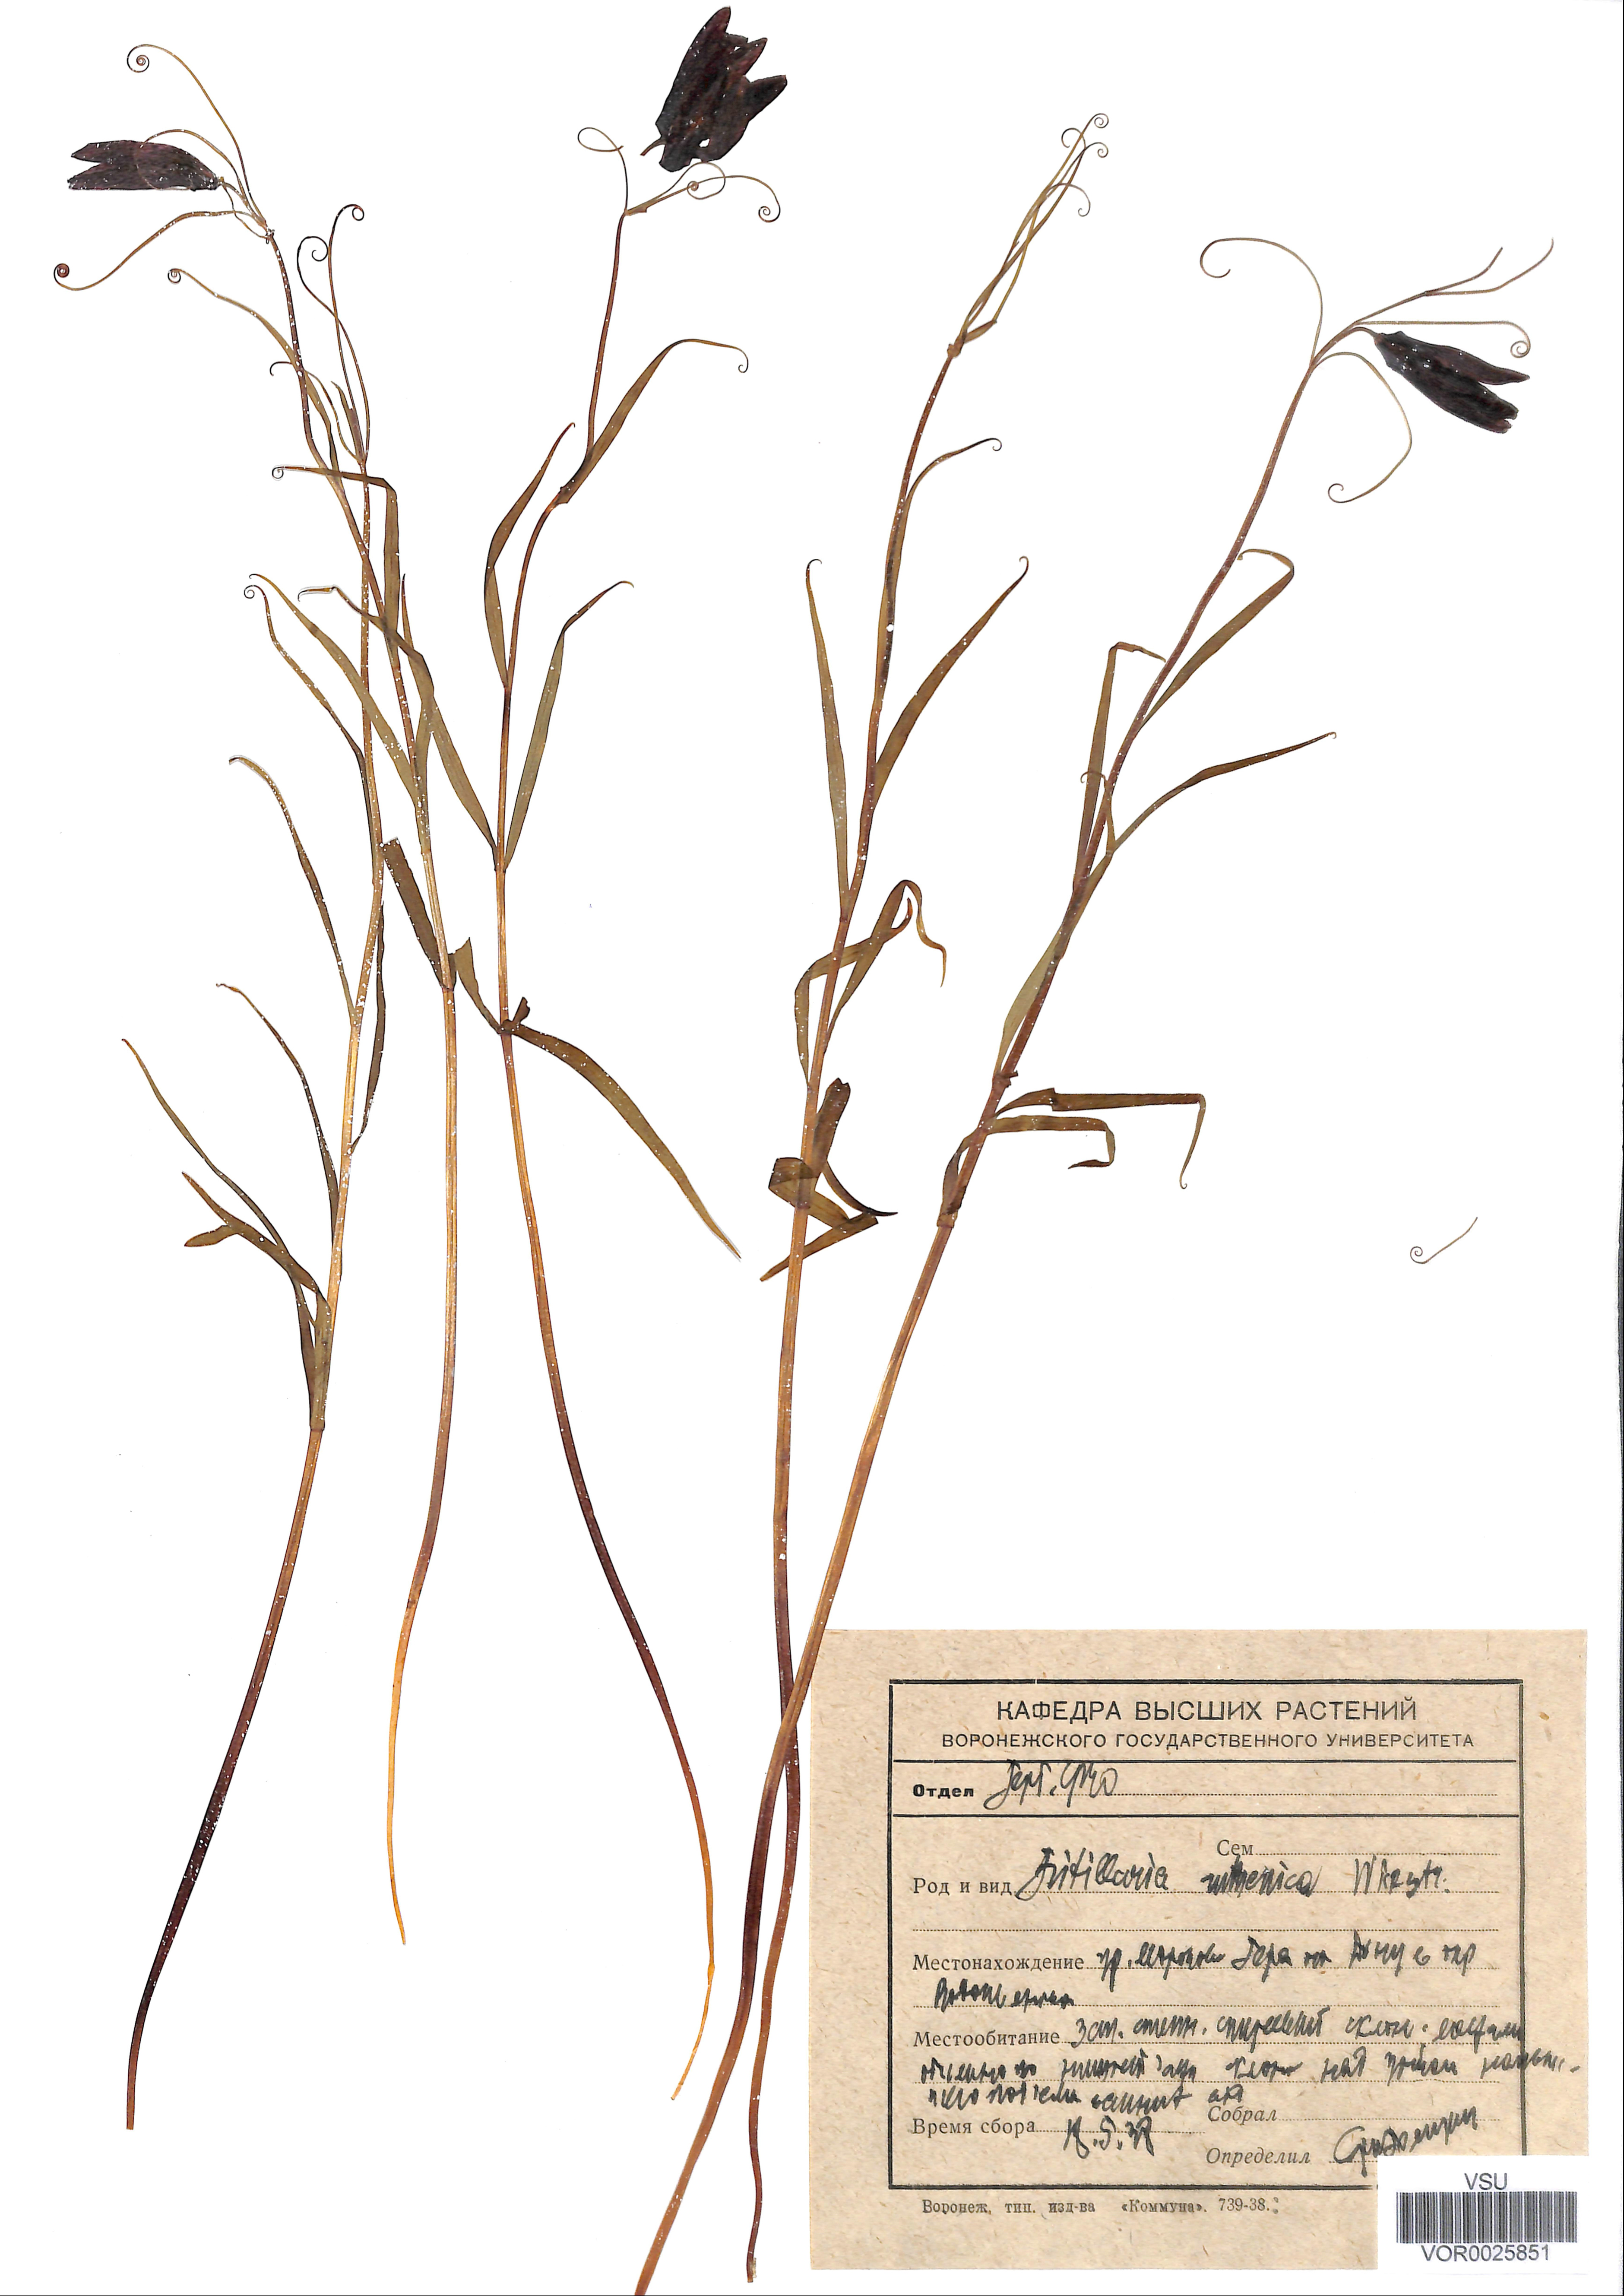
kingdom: Plantae
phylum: Tracheophyta
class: Liliopsida
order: Liliales
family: Liliaceae
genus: Fritillaria
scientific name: Fritillaria ruthenica
